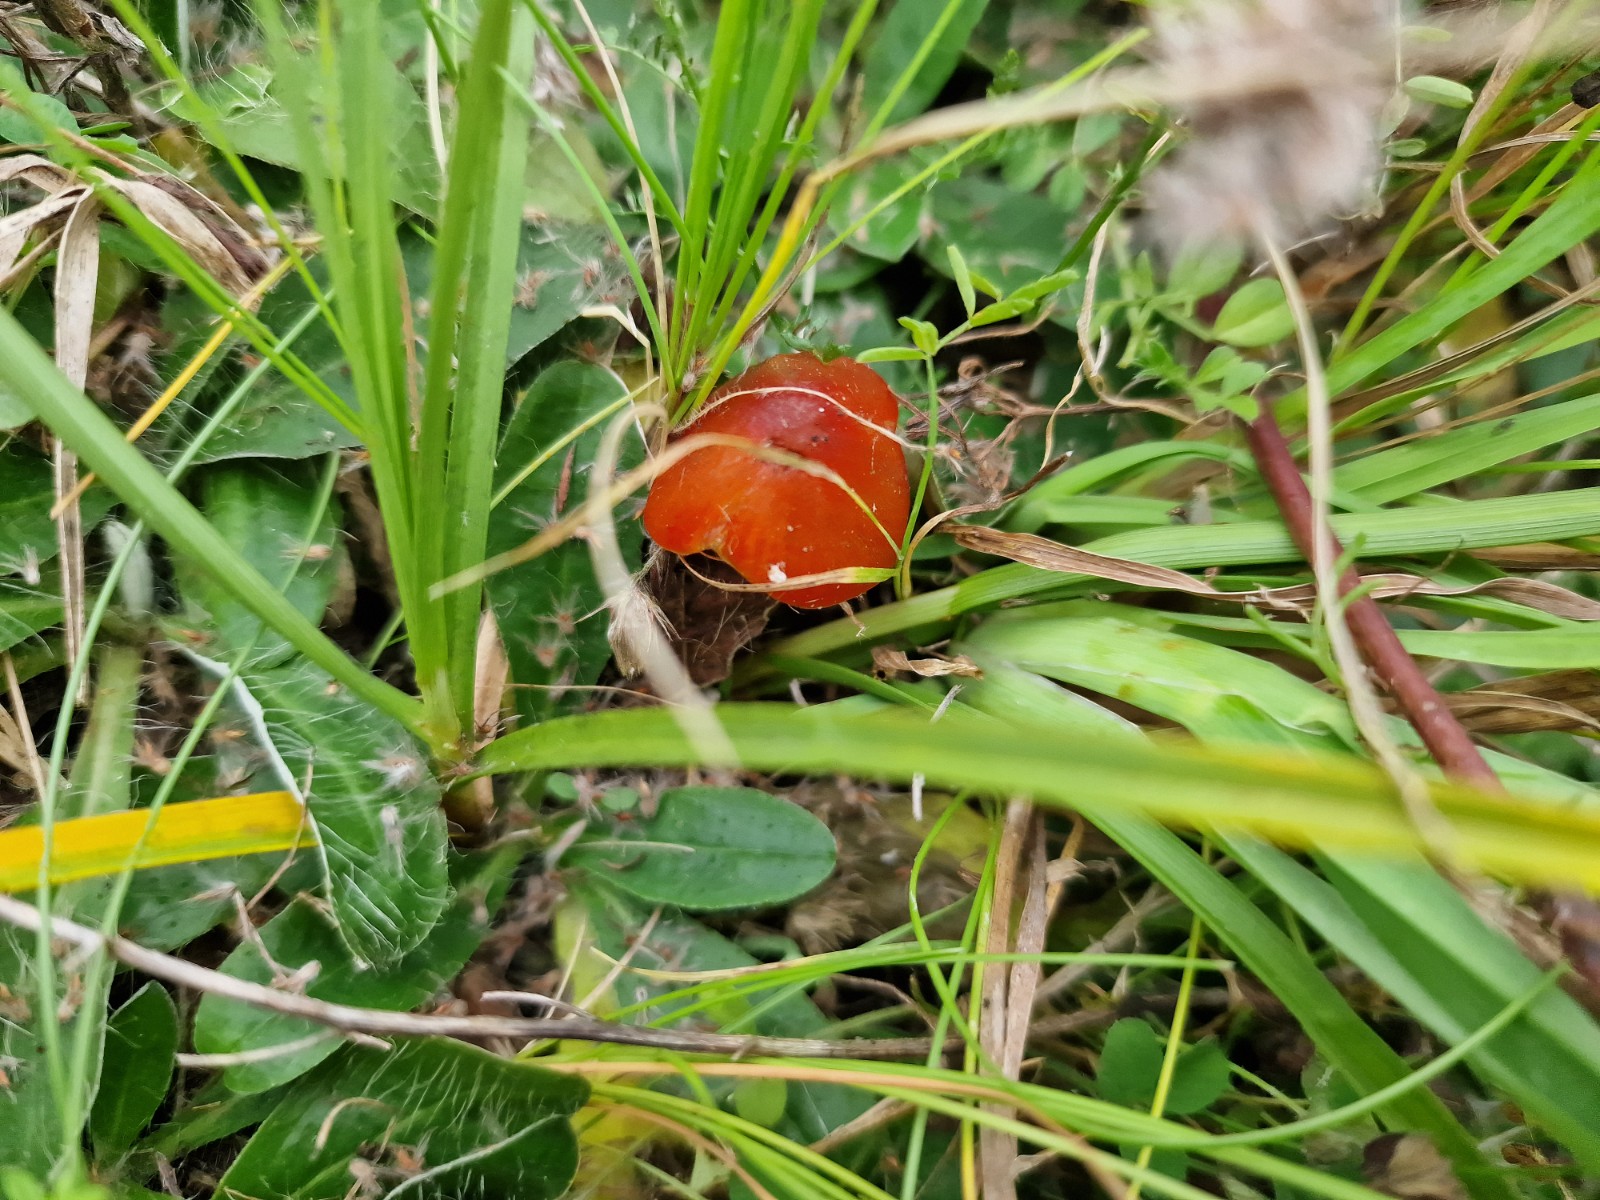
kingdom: Fungi
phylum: Basidiomycota
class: Agaricomycetes
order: Agaricales
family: Hygrophoraceae
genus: Hygrocybe
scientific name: Hygrocybe conica
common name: kegle-vokshat
